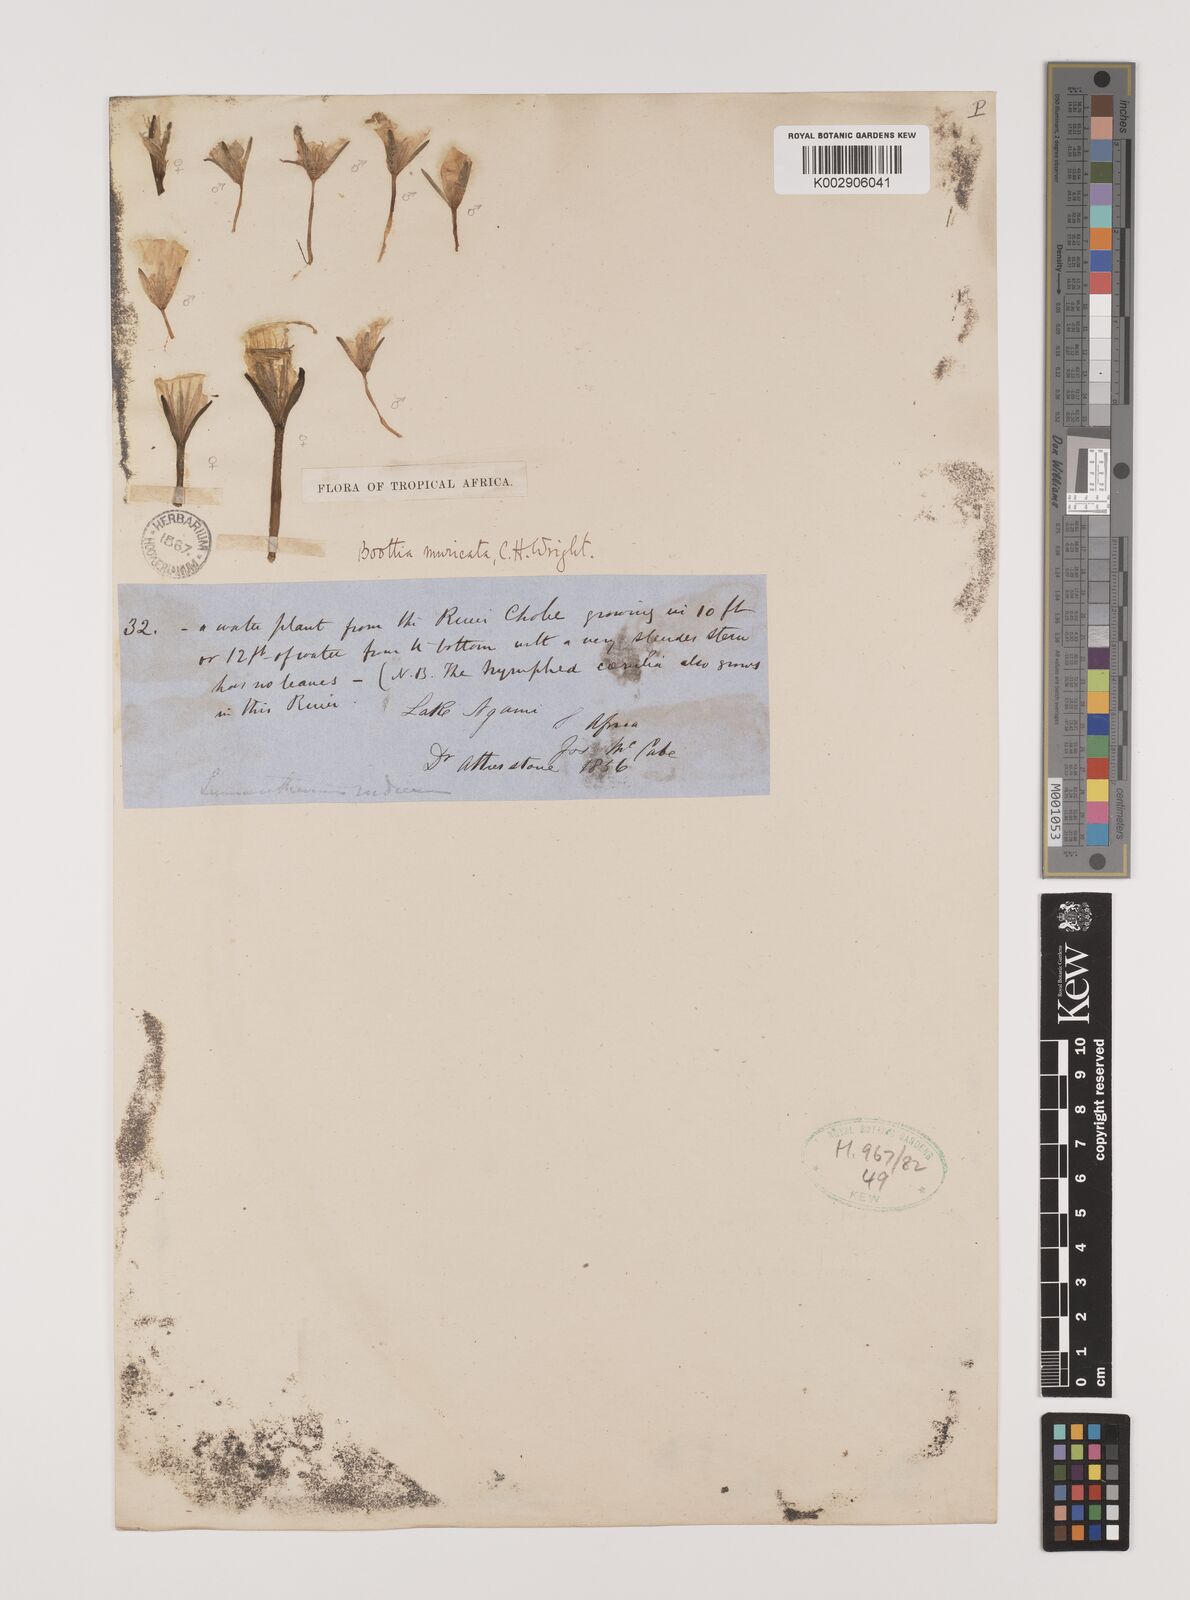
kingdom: Plantae
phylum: Tracheophyta
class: Liliopsida
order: Alismatales
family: Hydrocharitaceae
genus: Ottelia
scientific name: Ottelia muricata
